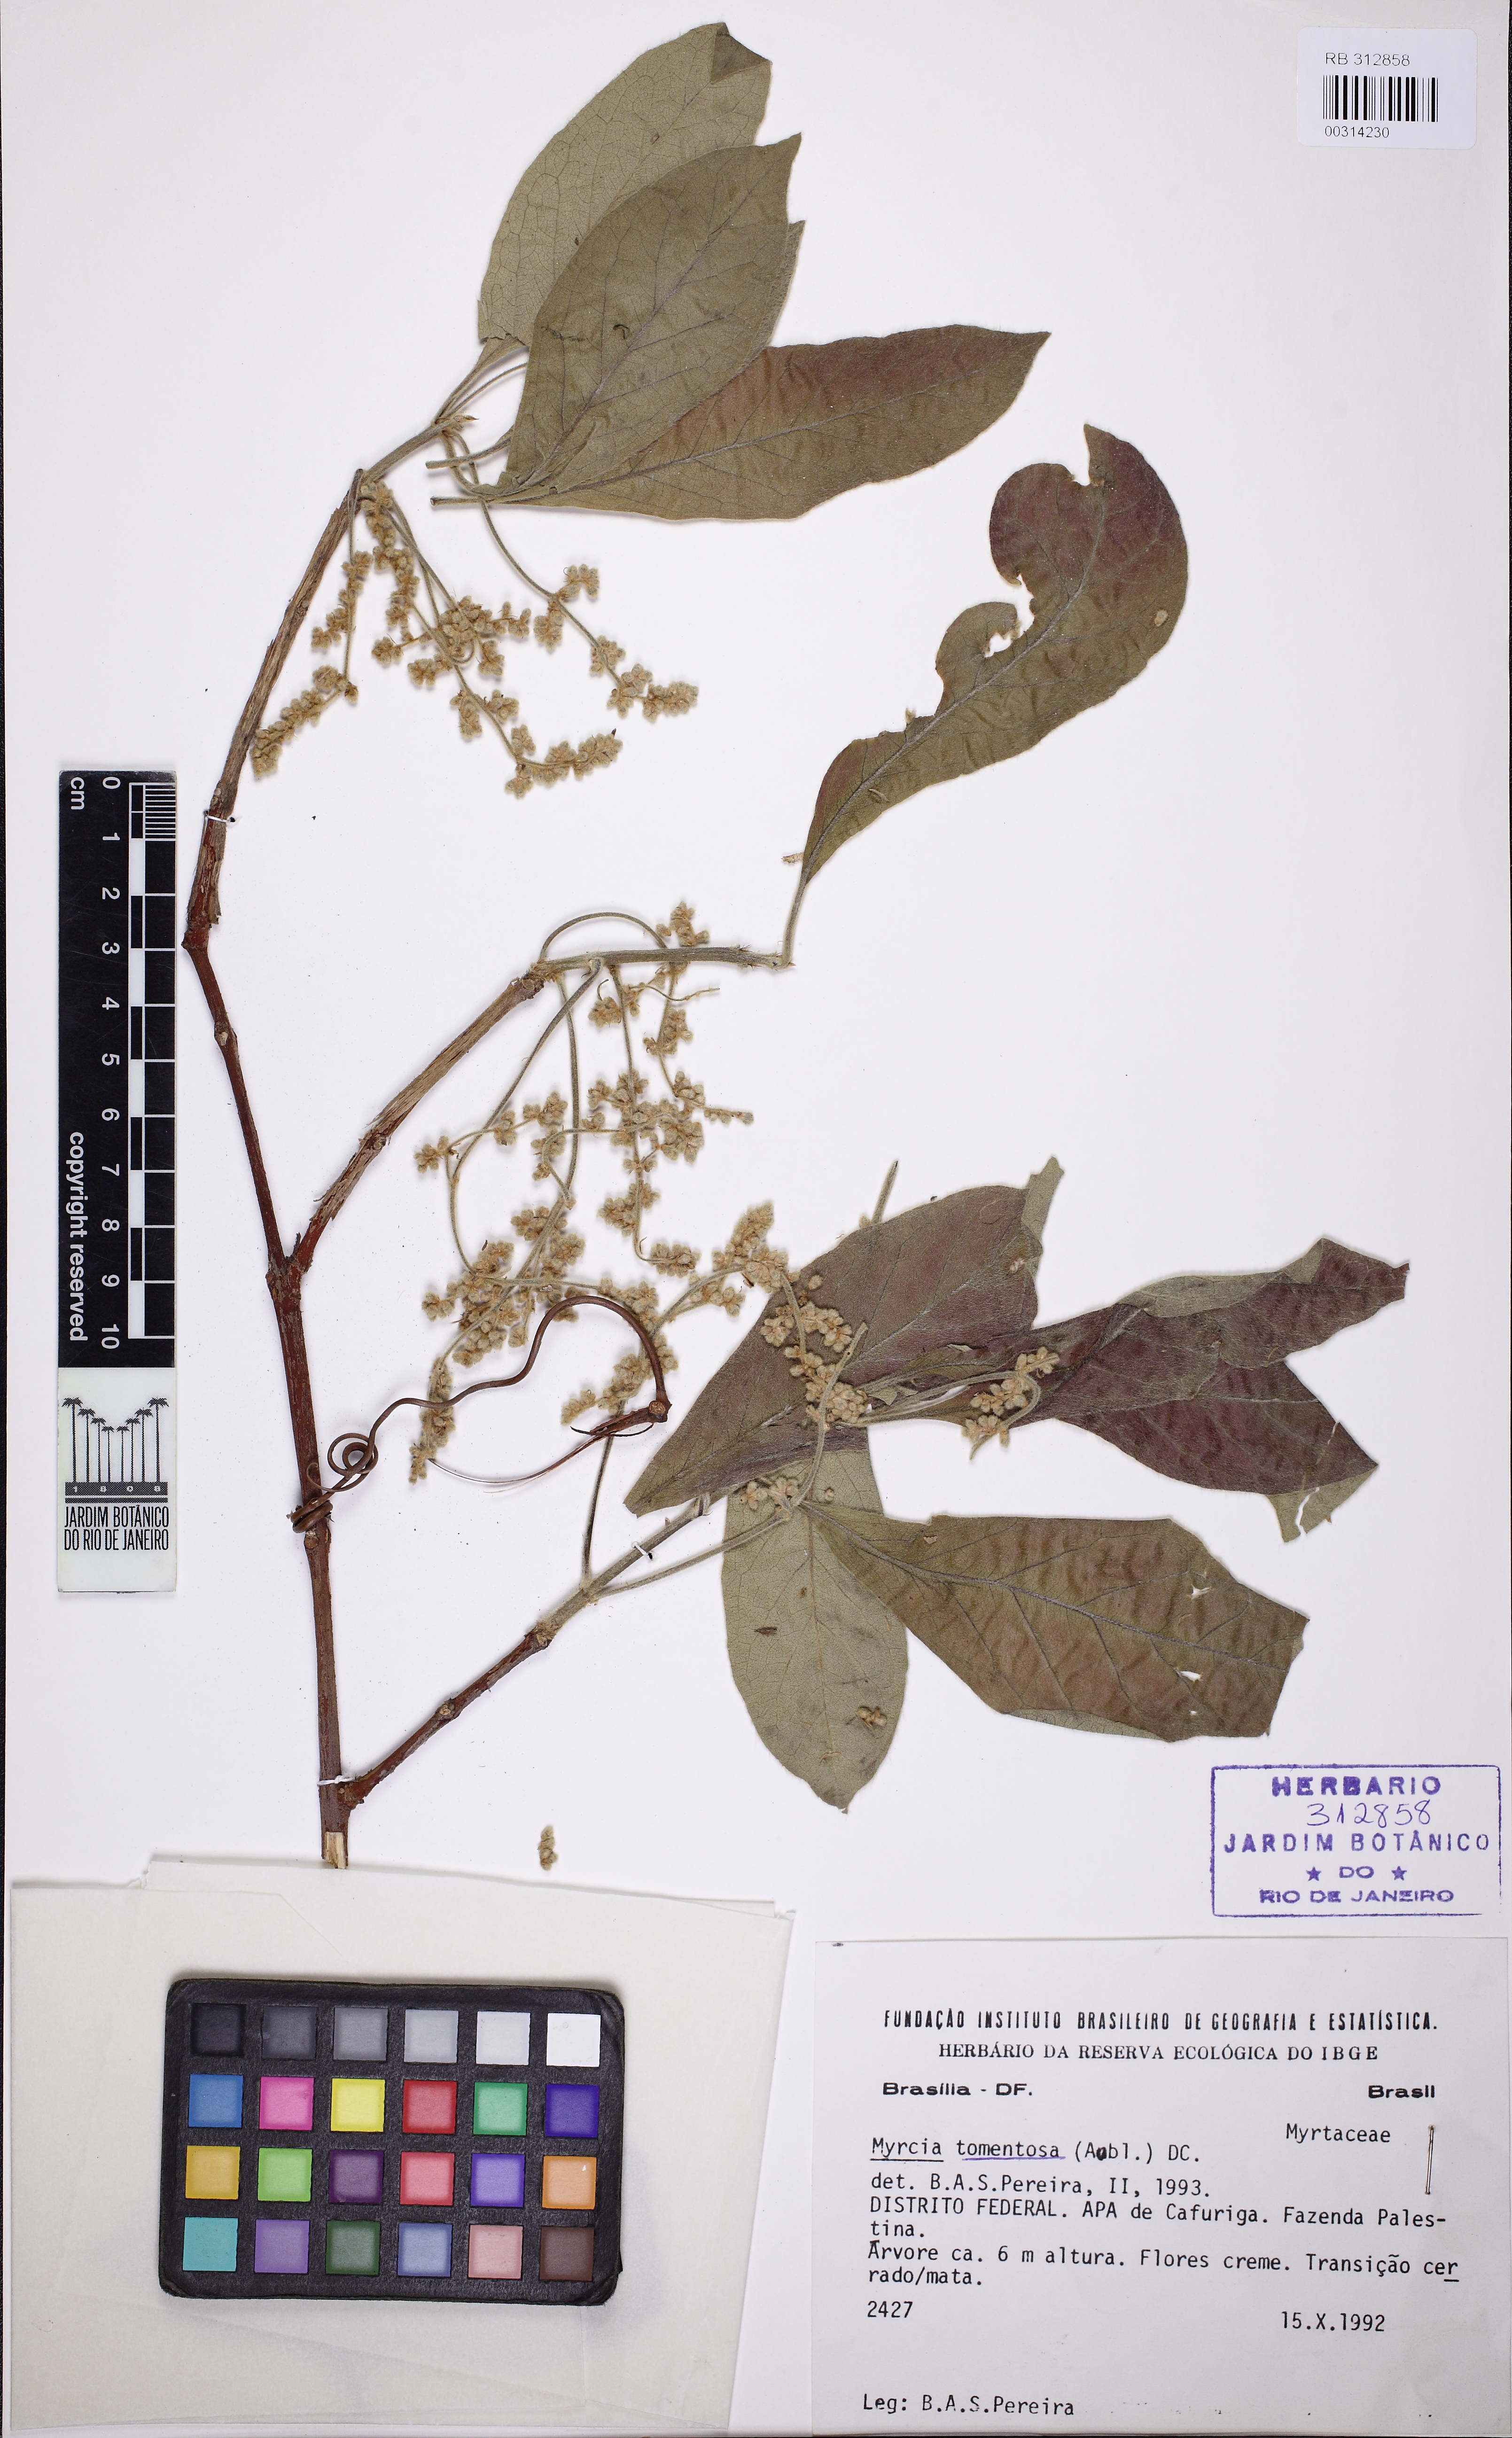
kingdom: Plantae
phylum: Tracheophyta
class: Magnoliopsida
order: Myrtales
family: Myrtaceae
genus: Myrcia
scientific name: Myrcia tomentosa
